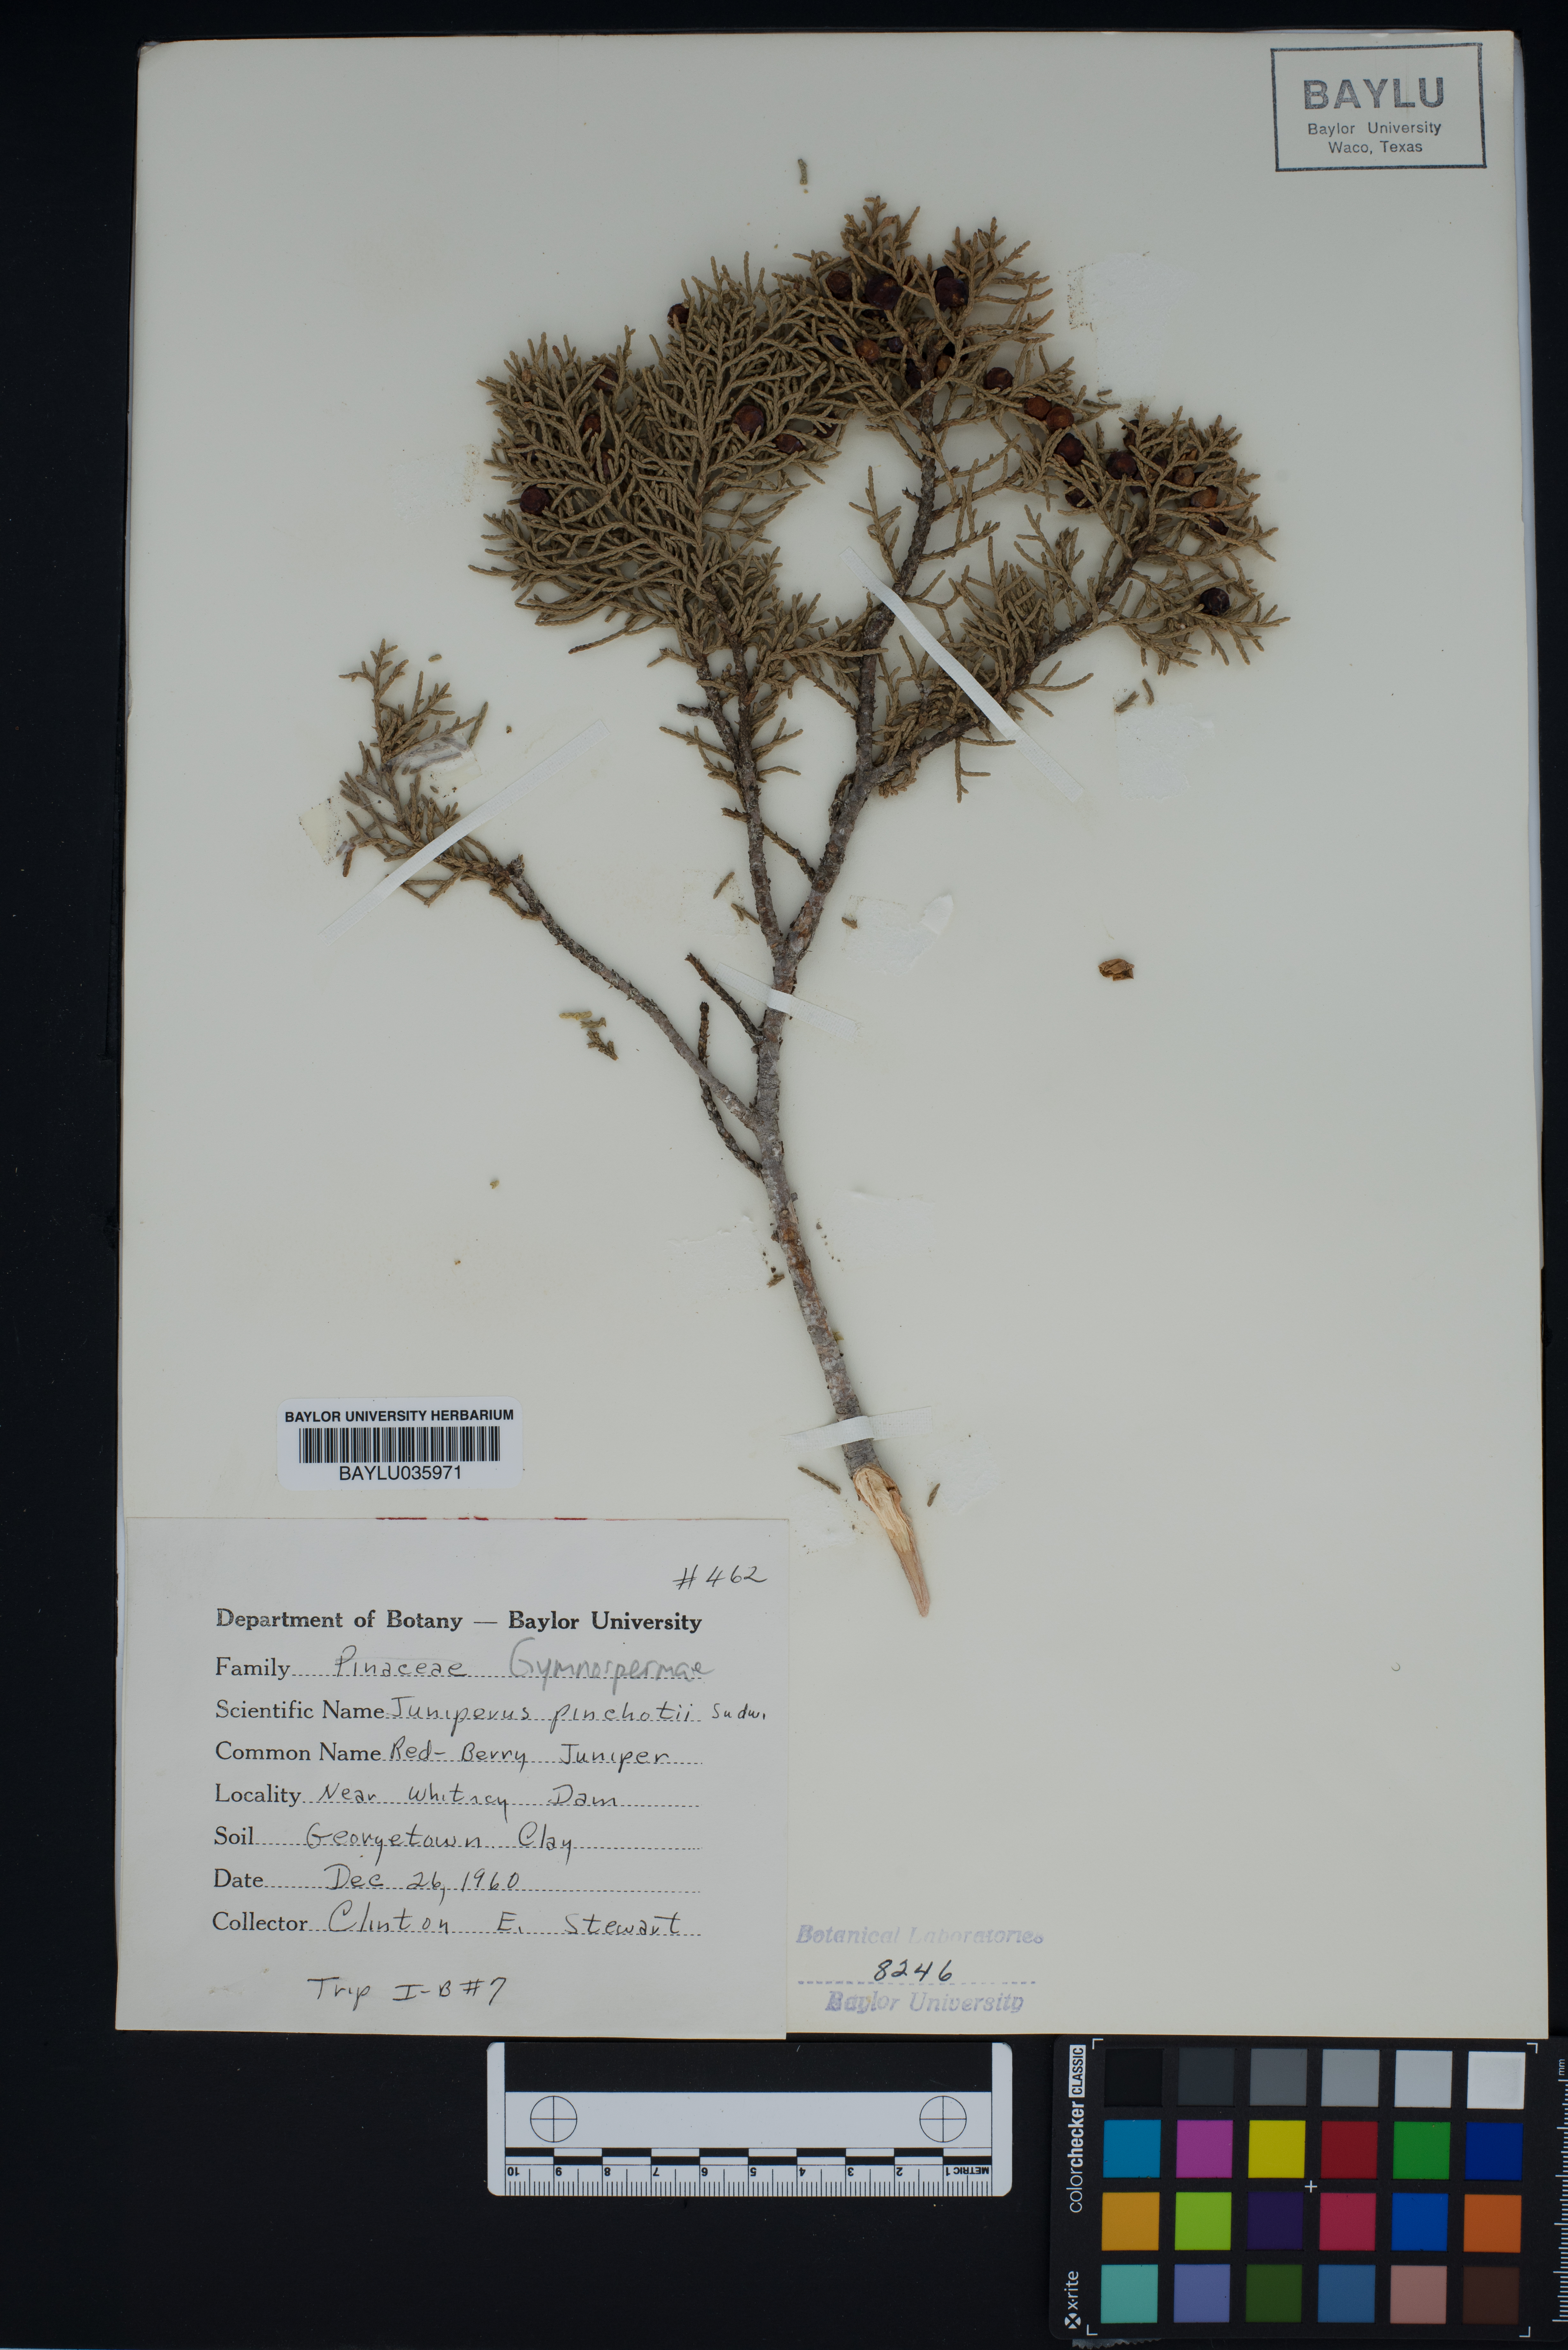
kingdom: Plantae
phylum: Tracheophyta
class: Pinopsida
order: Pinales
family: Cupressaceae
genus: Juniperus
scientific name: Juniperus pinchotii
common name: Pinchot juniper
